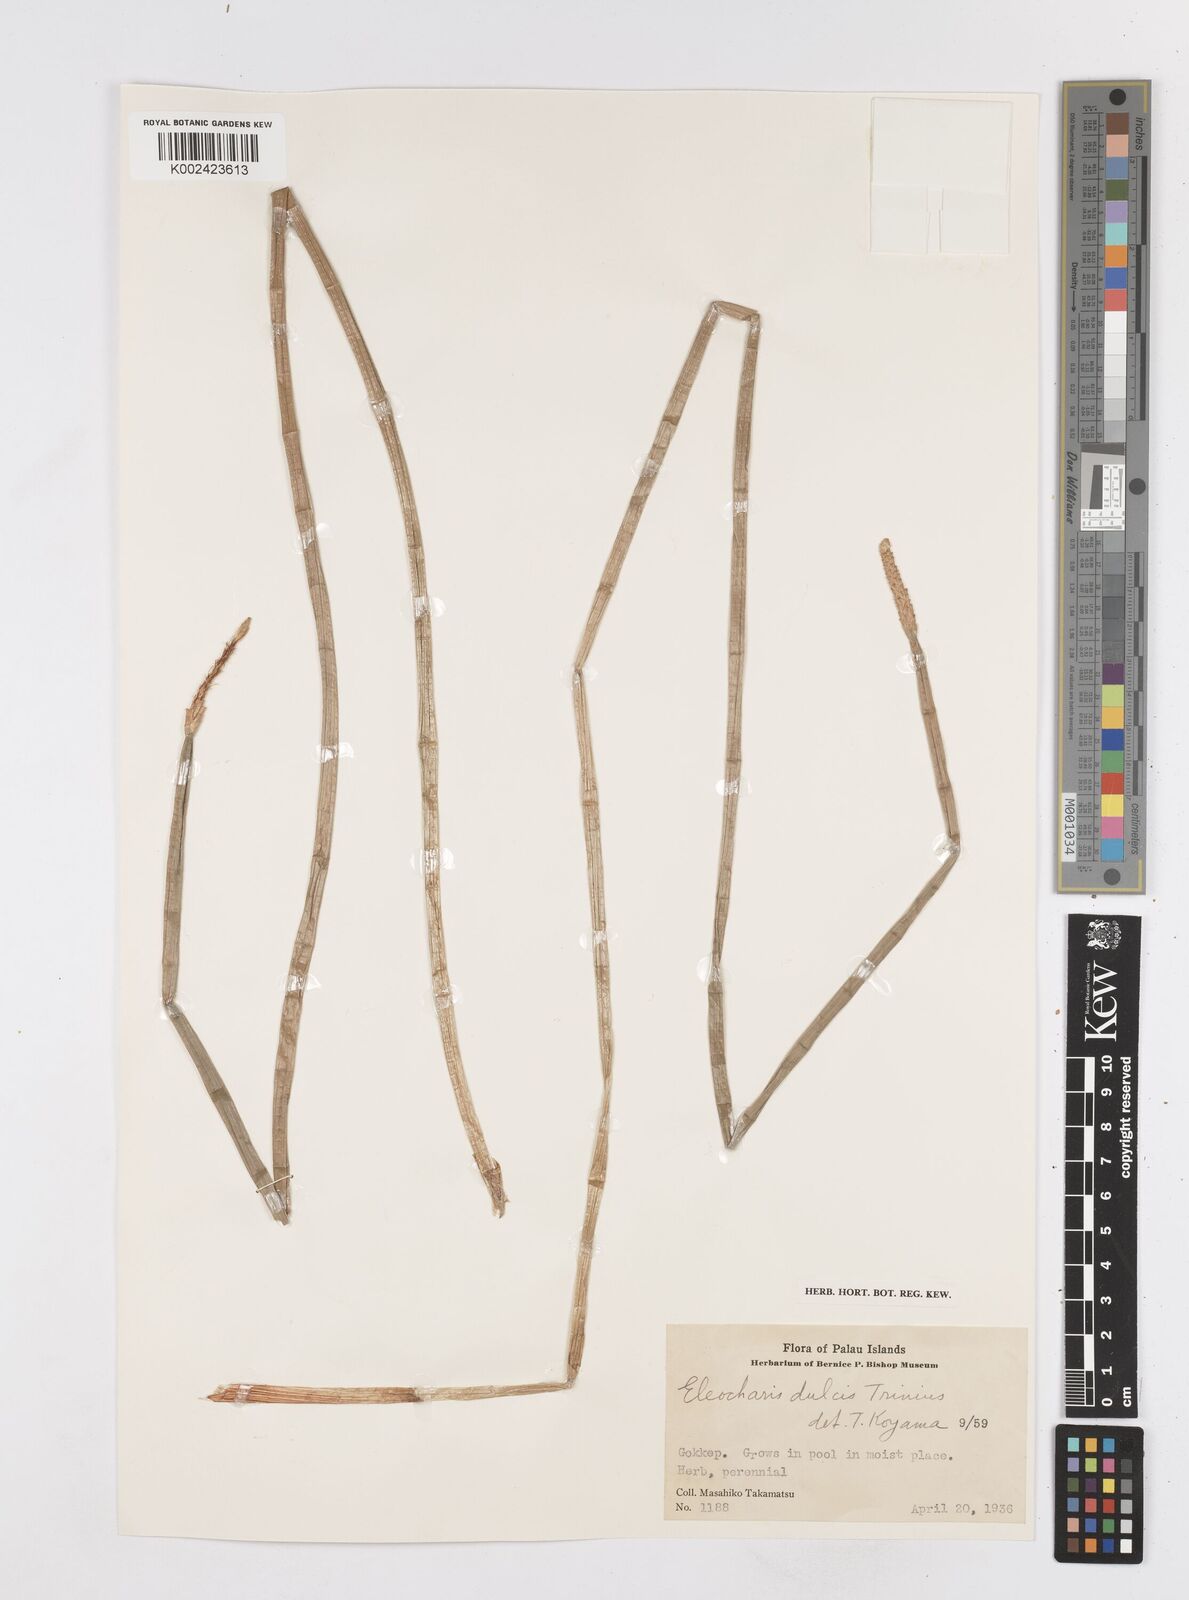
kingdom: Plantae
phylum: Tracheophyta
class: Liliopsida
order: Poales
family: Cyperaceae
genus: Eleocharis
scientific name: Eleocharis dulcis
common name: Chinese water chestnut
